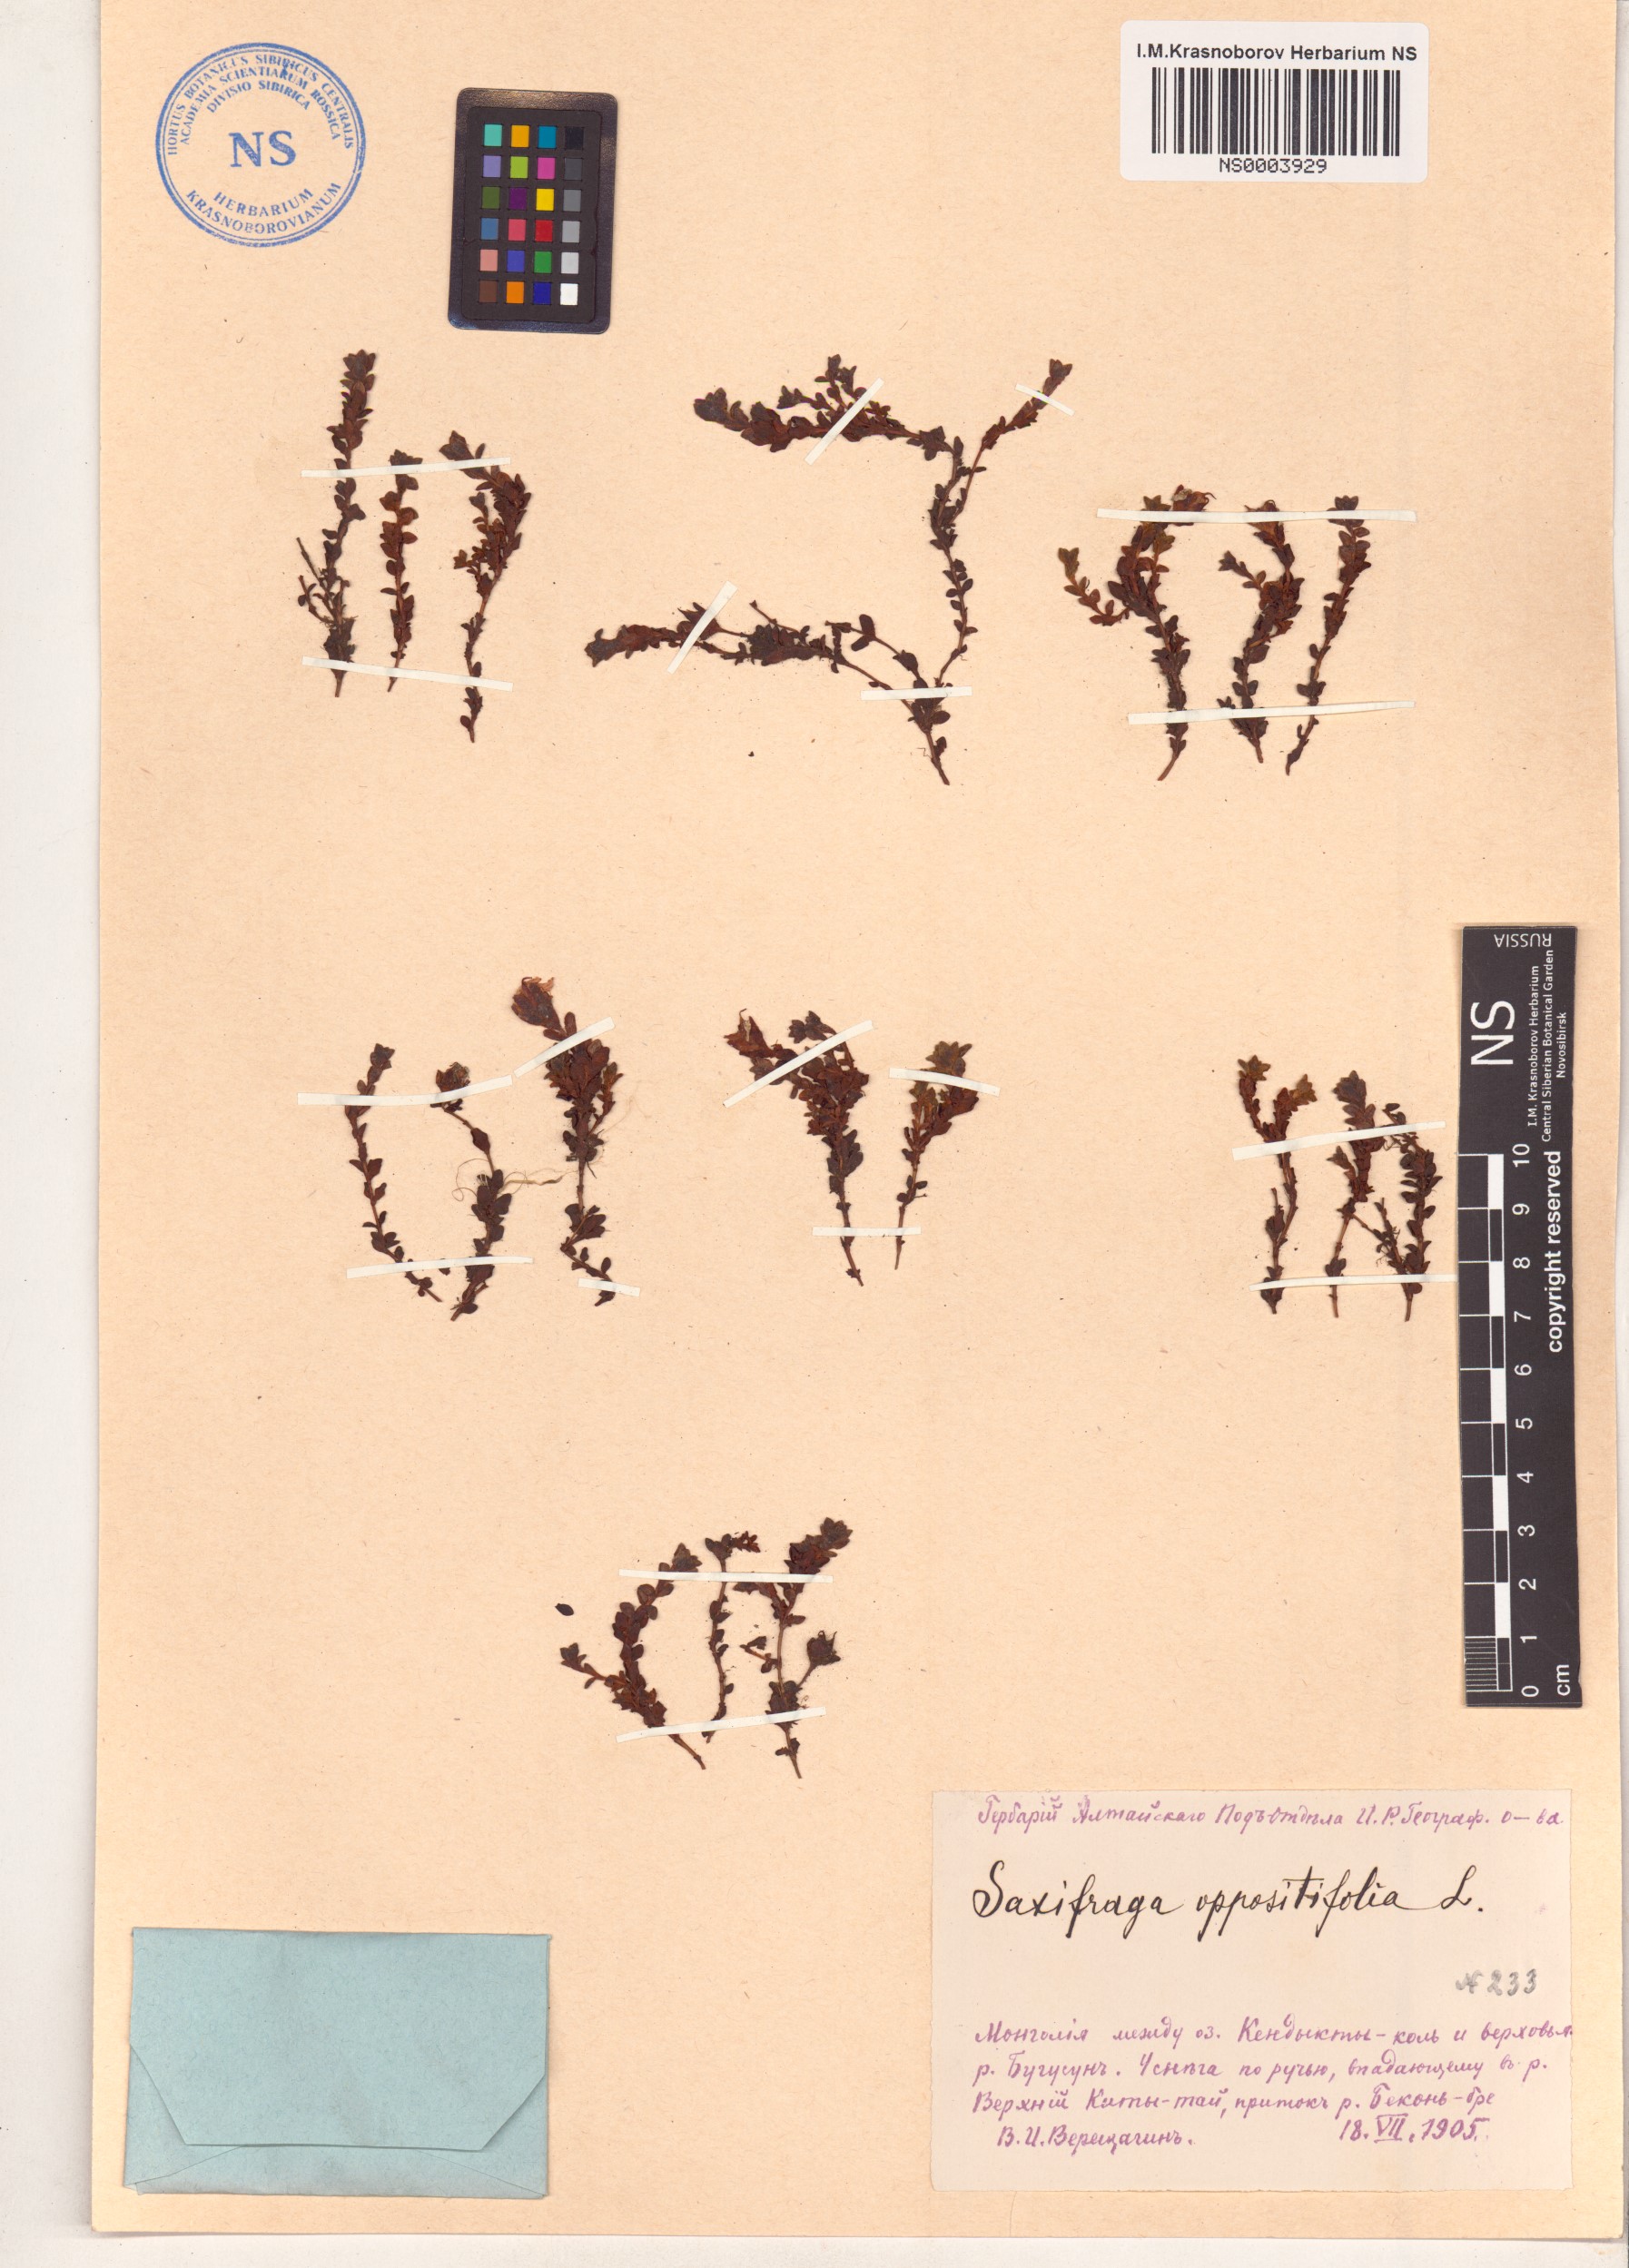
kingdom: Plantae
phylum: Tracheophyta
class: Magnoliopsida
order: Saxifragales
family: Saxifragaceae
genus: Saxifraga
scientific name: Saxifraga oppositifolia
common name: Purple saxifrage
